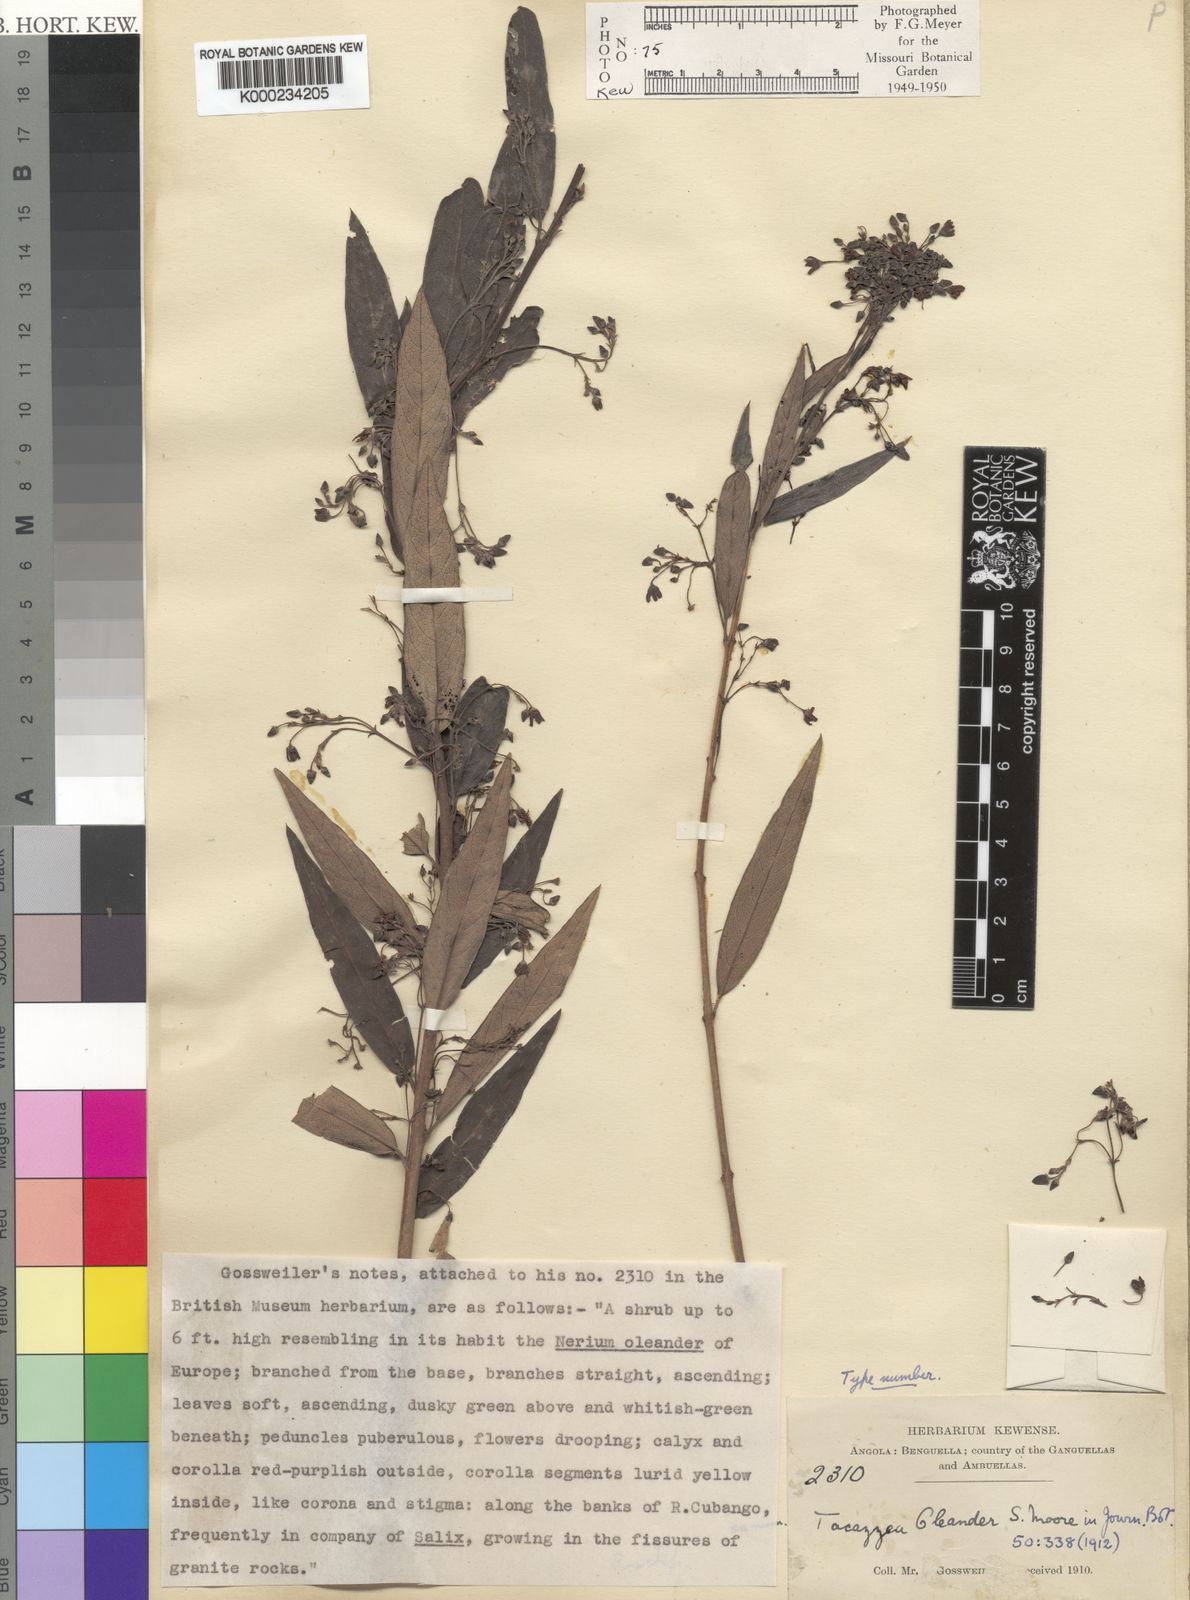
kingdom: Plantae
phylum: Tracheophyta
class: Magnoliopsida
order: Gentianales
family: Apocynaceae
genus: Tacazzea
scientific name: Tacazzea rosmarinifolia
